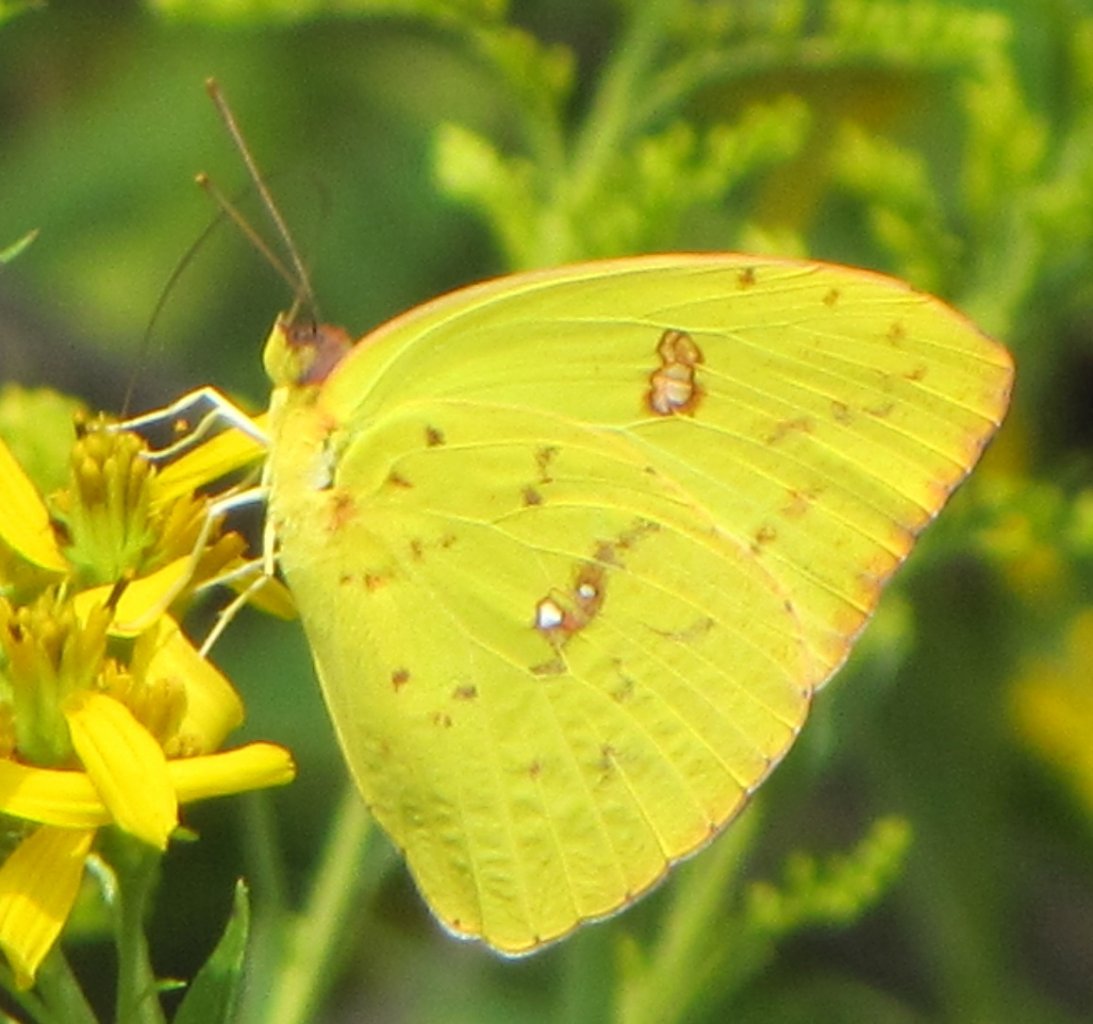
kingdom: Animalia
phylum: Arthropoda
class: Insecta
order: Lepidoptera
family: Pieridae
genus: Phoebis
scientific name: Phoebis sennae
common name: Cloudless Sulphur
